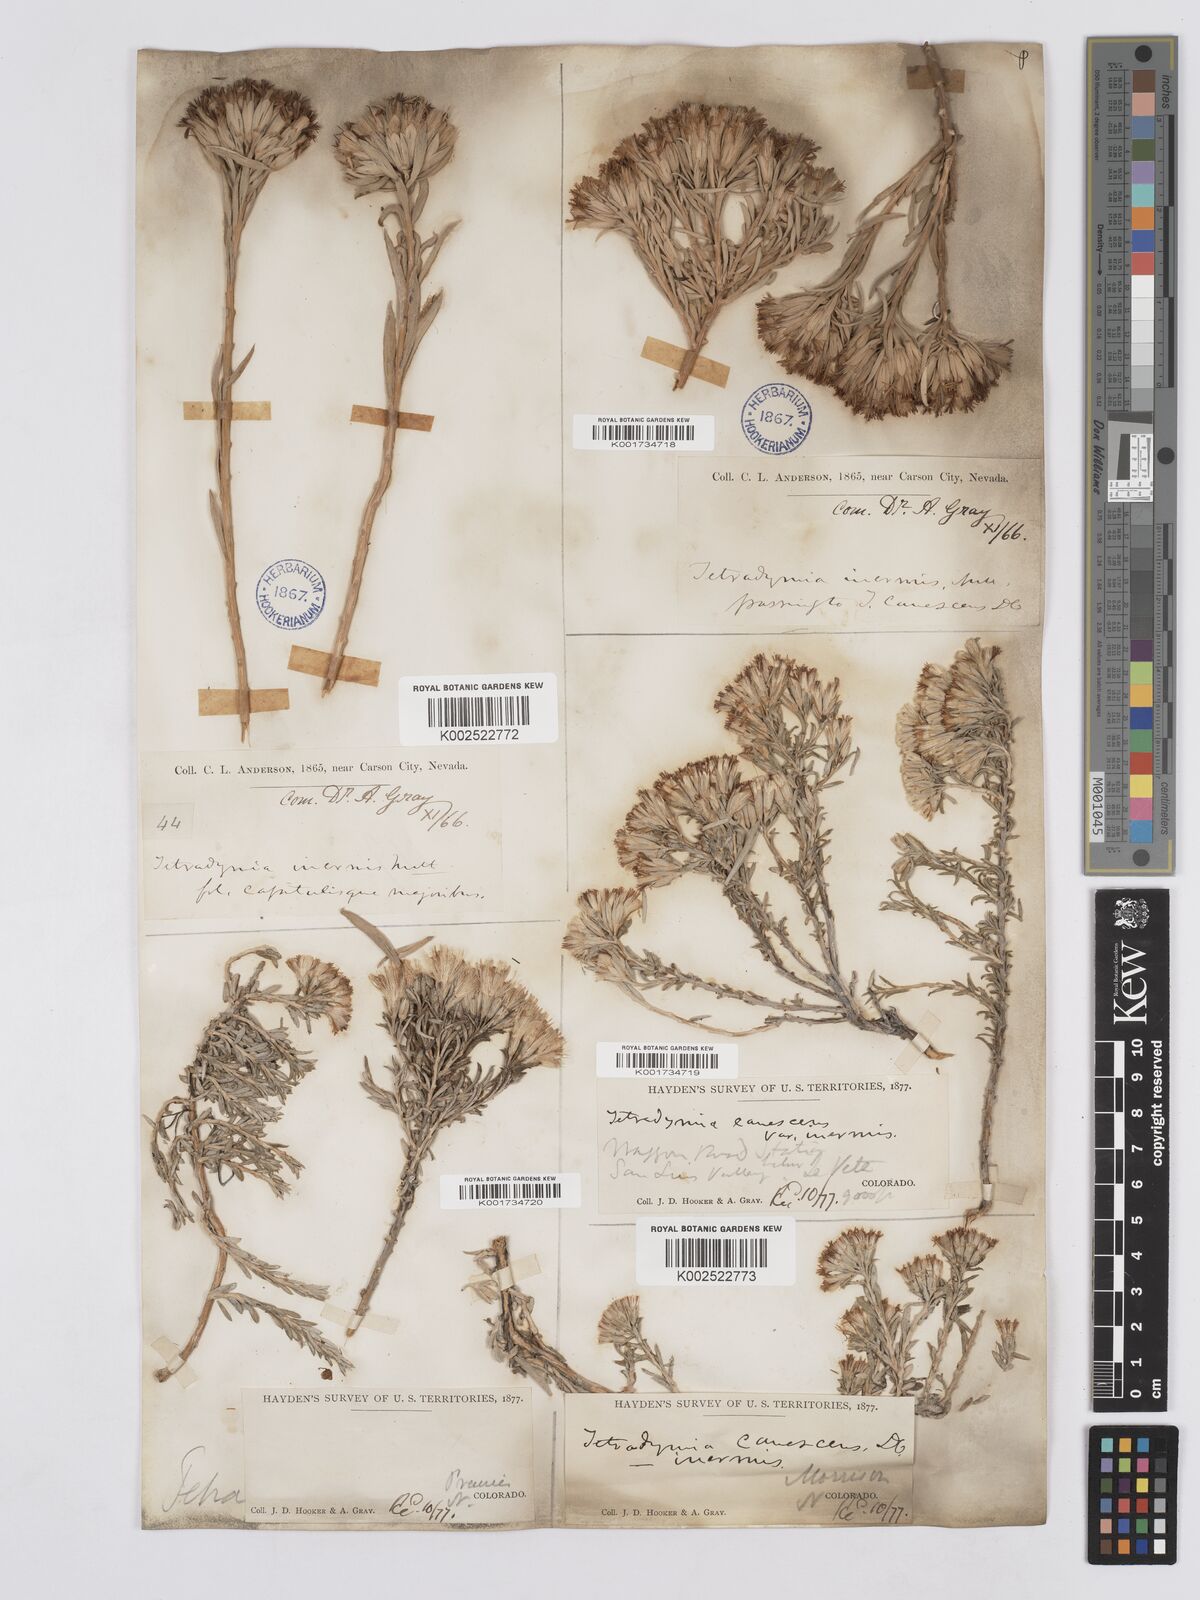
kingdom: Plantae
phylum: Tracheophyta
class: Magnoliopsida
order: Asterales
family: Asteraceae
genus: Tetradymia
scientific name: Tetradymia canescens
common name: Spineless horsebrush
